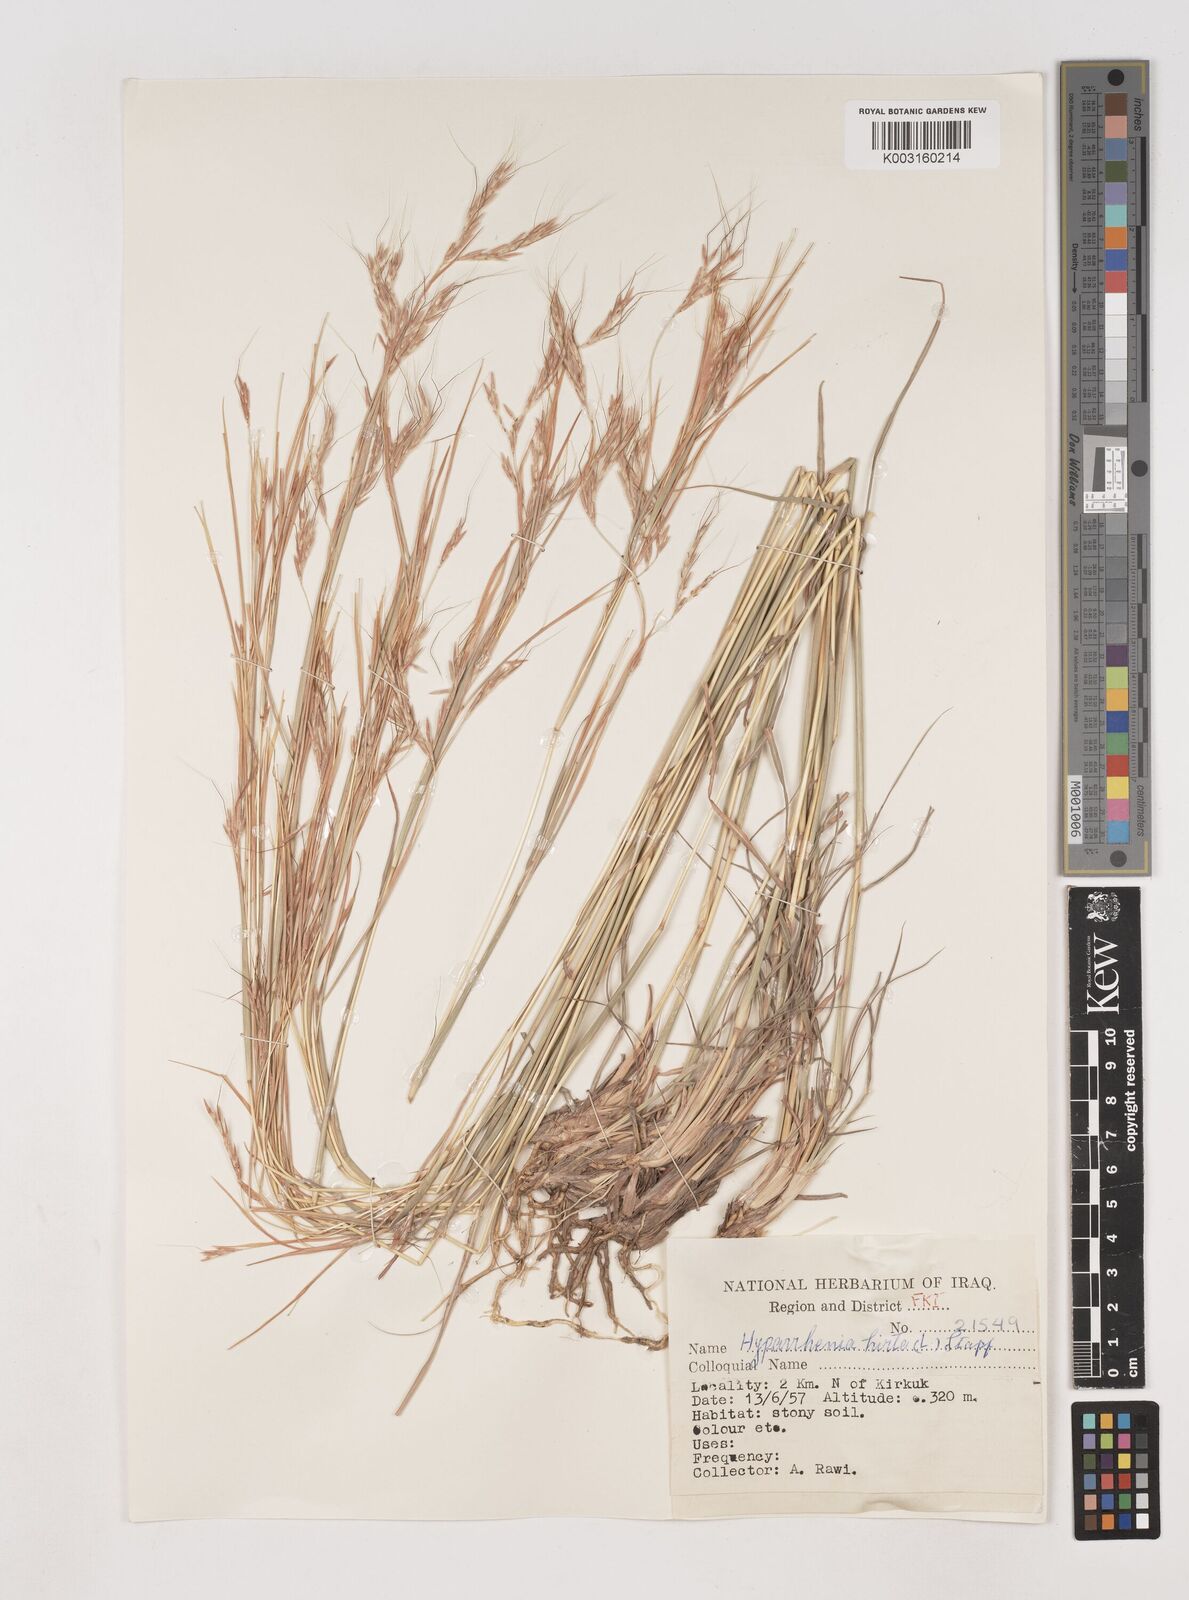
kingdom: Plantae
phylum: Tracheophyta
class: Liliopsida
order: Poales
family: Poaceae
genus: Hyparrhenia
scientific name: Hyparrhenia hirta
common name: Thatching grass
